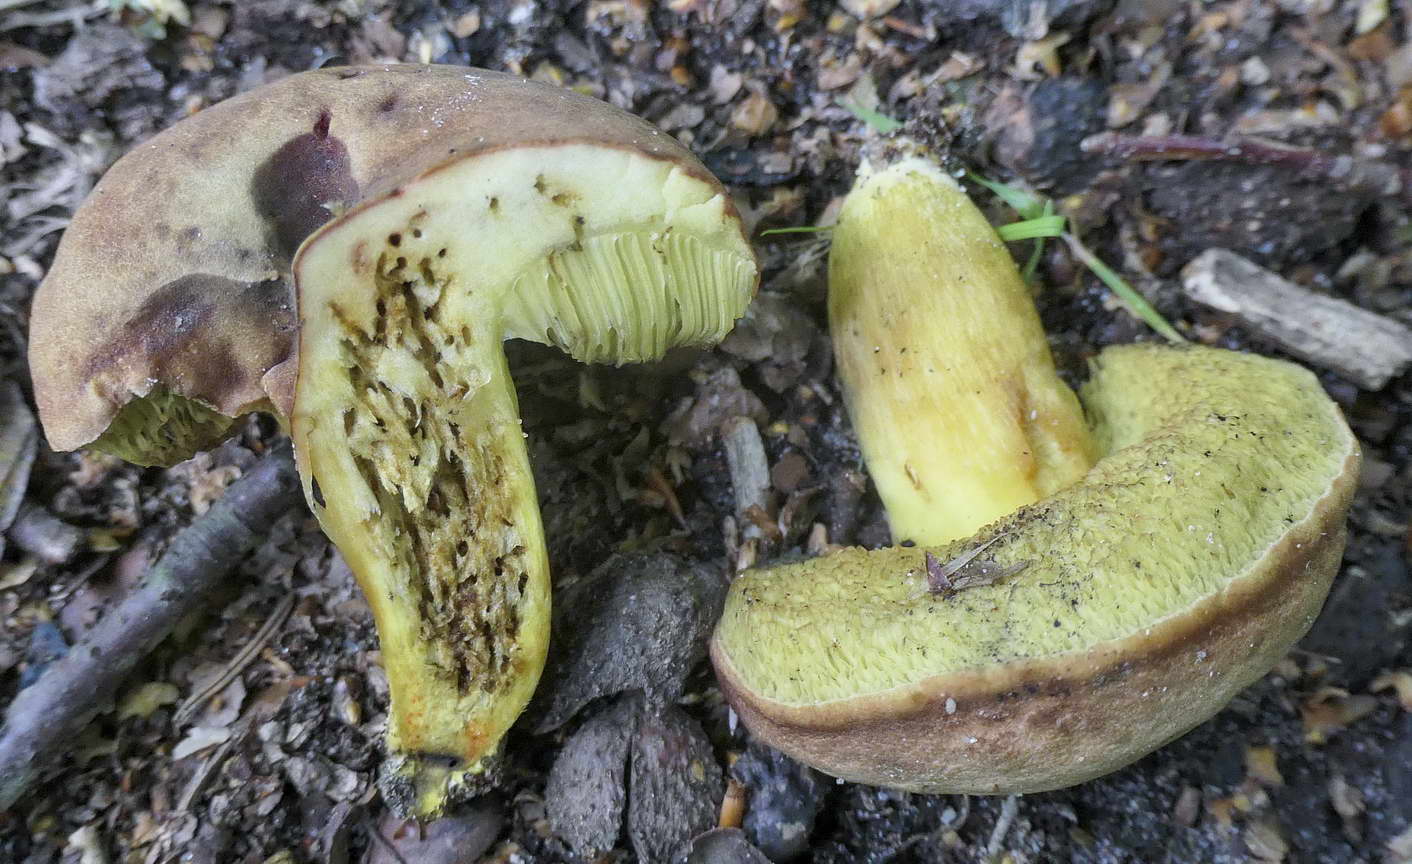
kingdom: Fungi
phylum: Basidiomycota
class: Agaricomycetes
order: Boletales
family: Boletaceae
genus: Hortiboletus
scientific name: Hortiboletus engelii
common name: fersken-rørhat
